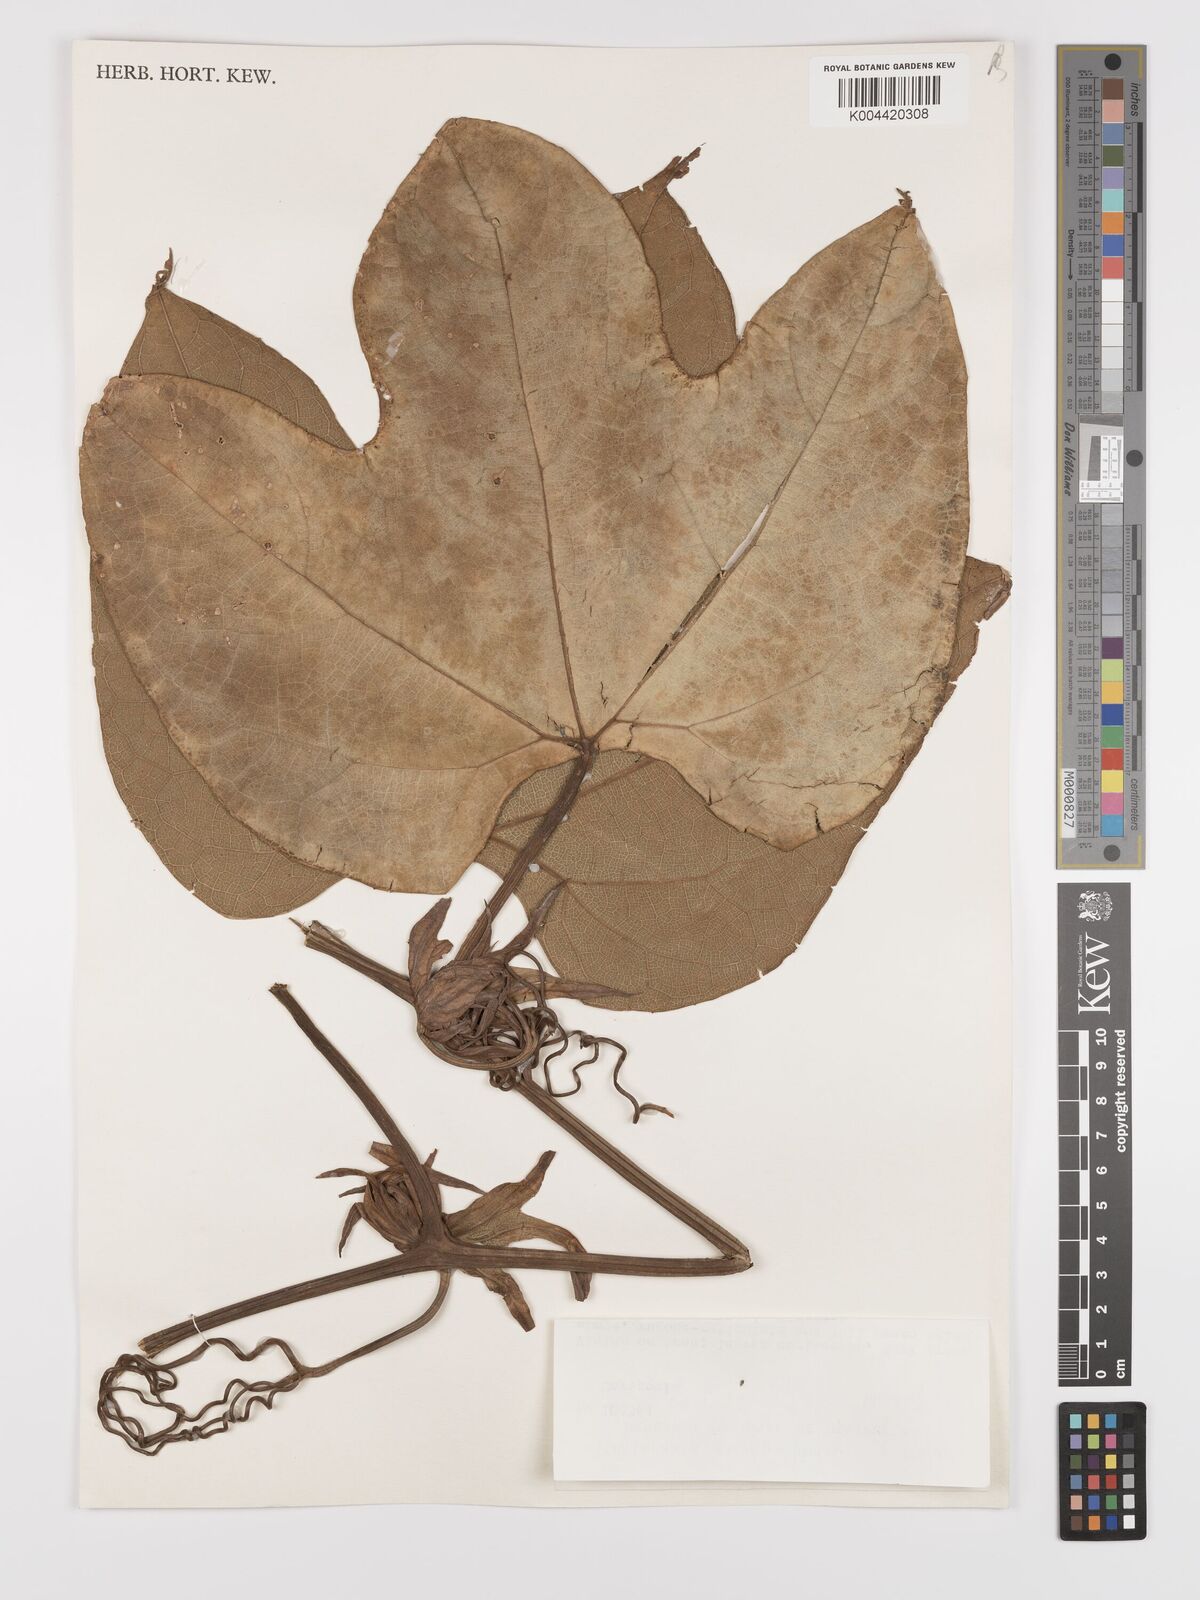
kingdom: Plantae
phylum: Tracheophyta
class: Magnoliopsida
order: Cucurbitales
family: Cucurbitaceae
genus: Cayaponia
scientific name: Cayaponia botryocarpa
